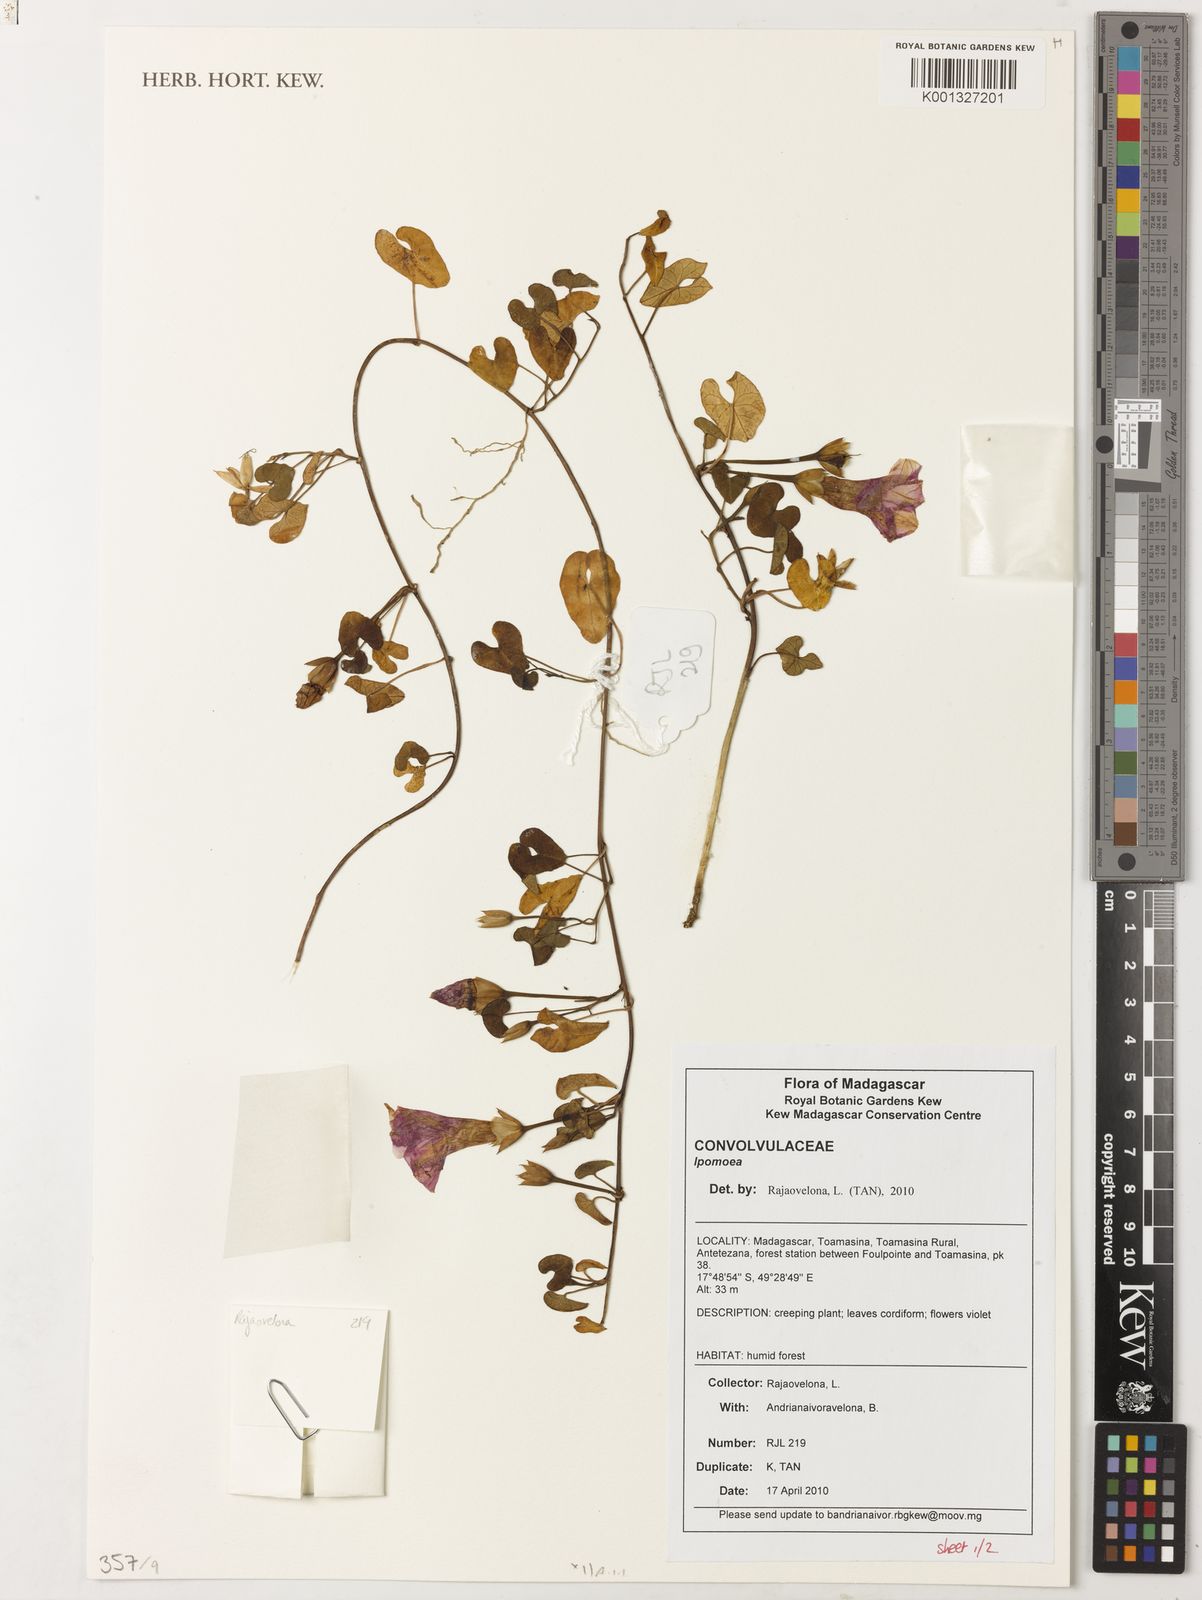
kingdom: Plantae
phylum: Tracheophyta
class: Magnoliopsida
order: Solanales
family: Convolvulaceae
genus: Ipomoea
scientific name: Ipomoea
